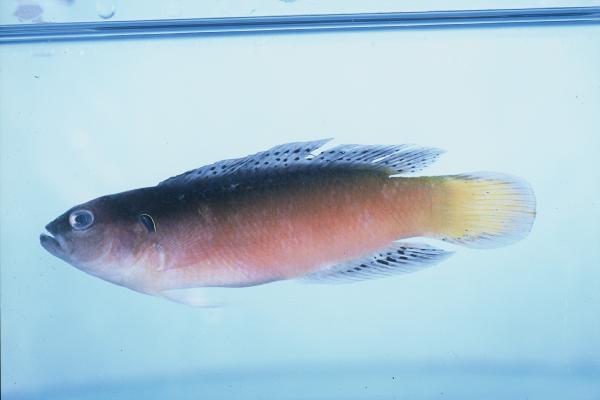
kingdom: Animalia
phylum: Chordata
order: Perciformes
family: Pseudochromidae
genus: Pseudochromis
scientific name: Pseudochromis melas
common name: Dark dottyback
